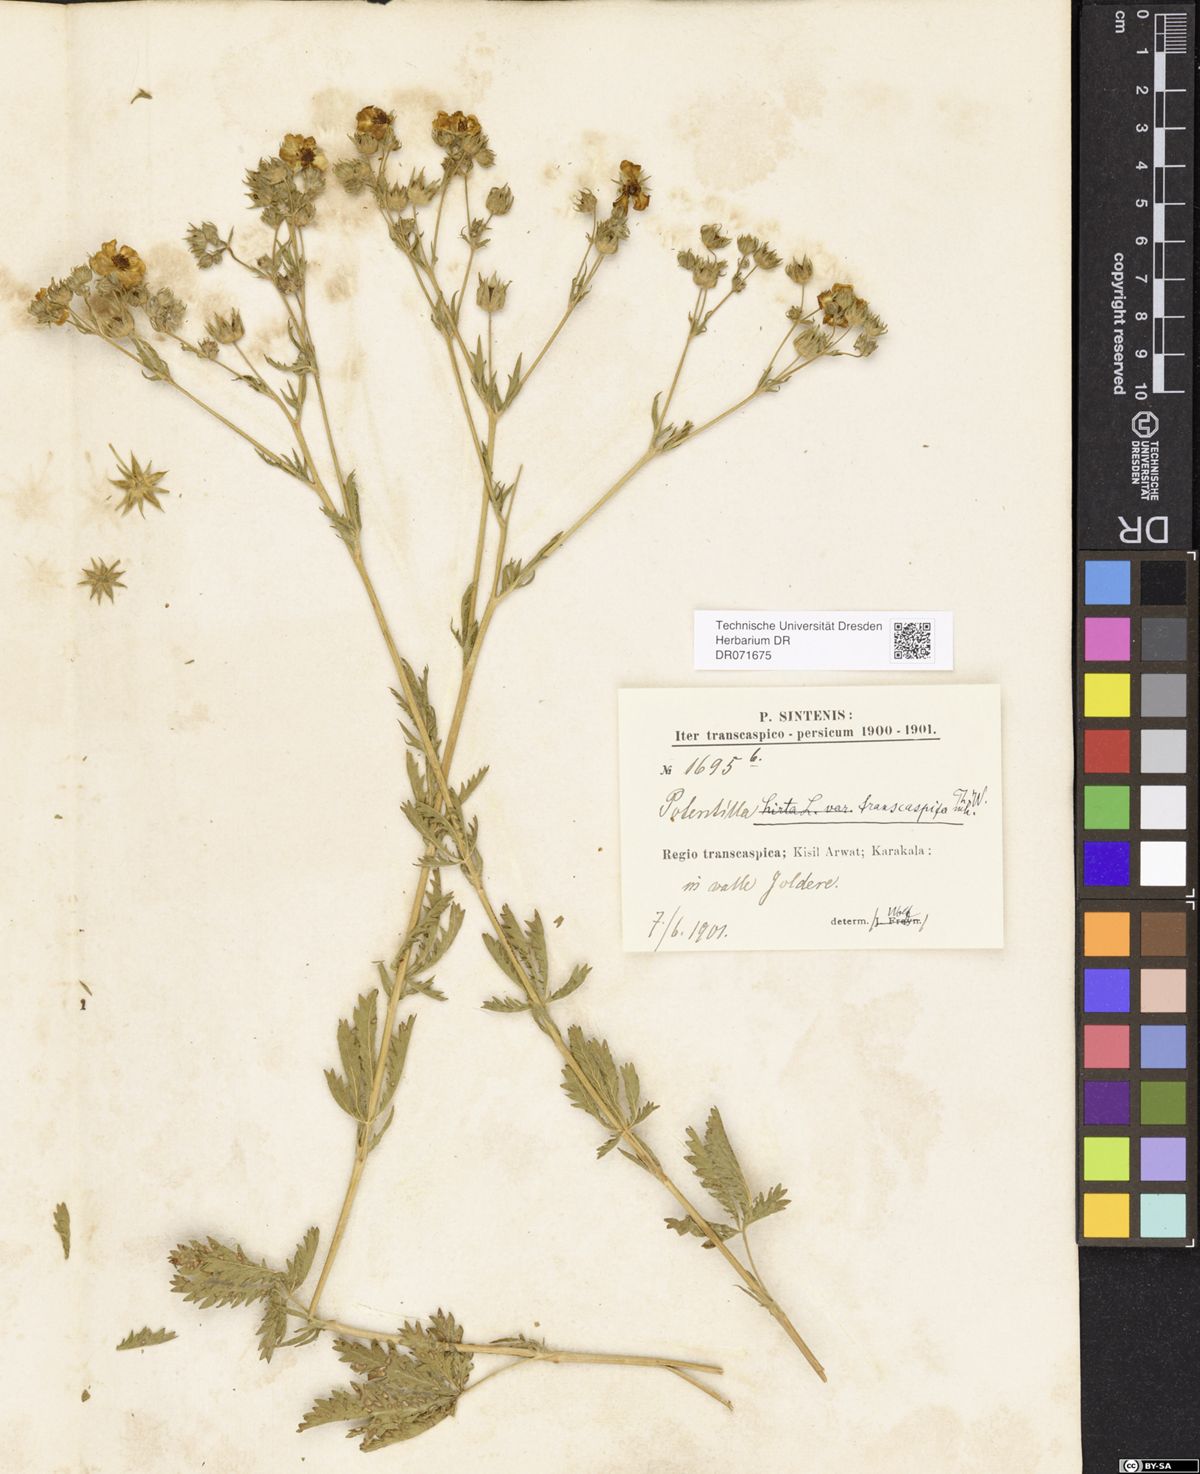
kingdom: Plantae
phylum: Tracheophyta
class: Magnoliopsida
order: Rosales
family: Rosaceae
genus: Potentilla
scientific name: Potentilla pedata
